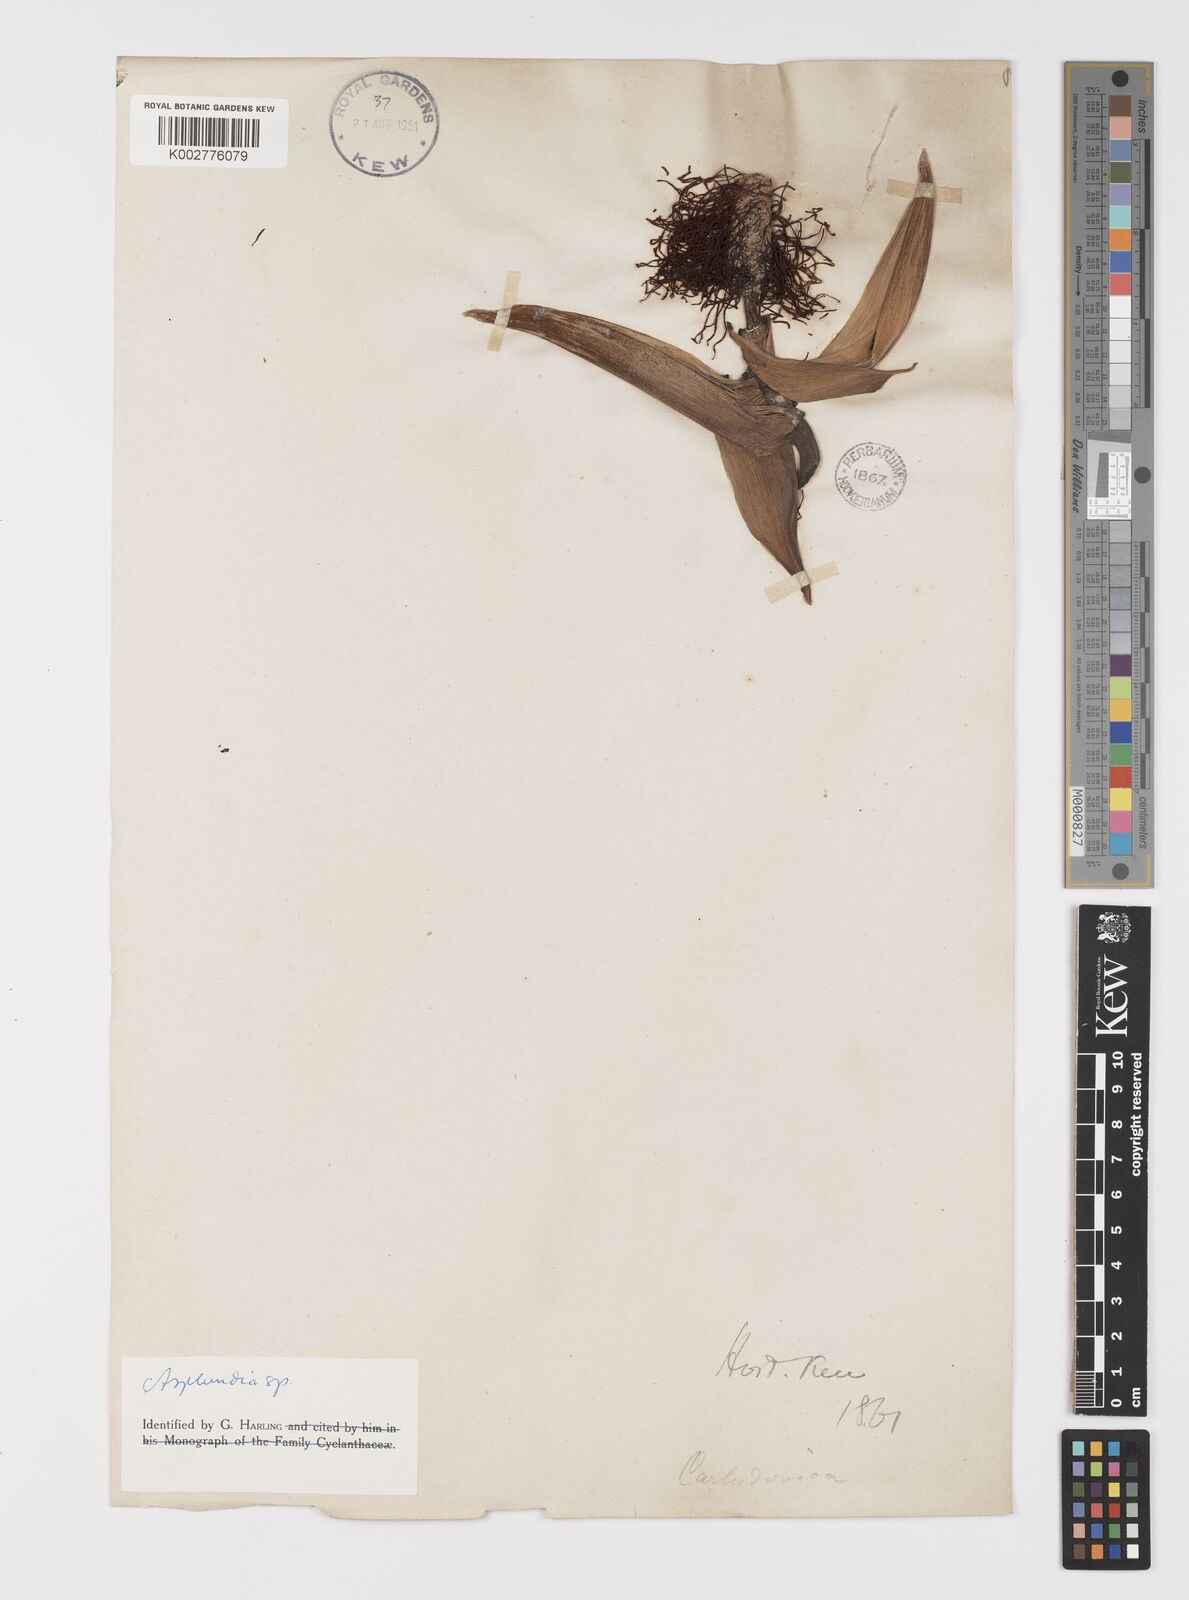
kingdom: Plantae
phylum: Tracheophyta
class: Liliopsida
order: Pandanales
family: Cyclanthaceae
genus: Asplundia
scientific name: Asplundia
